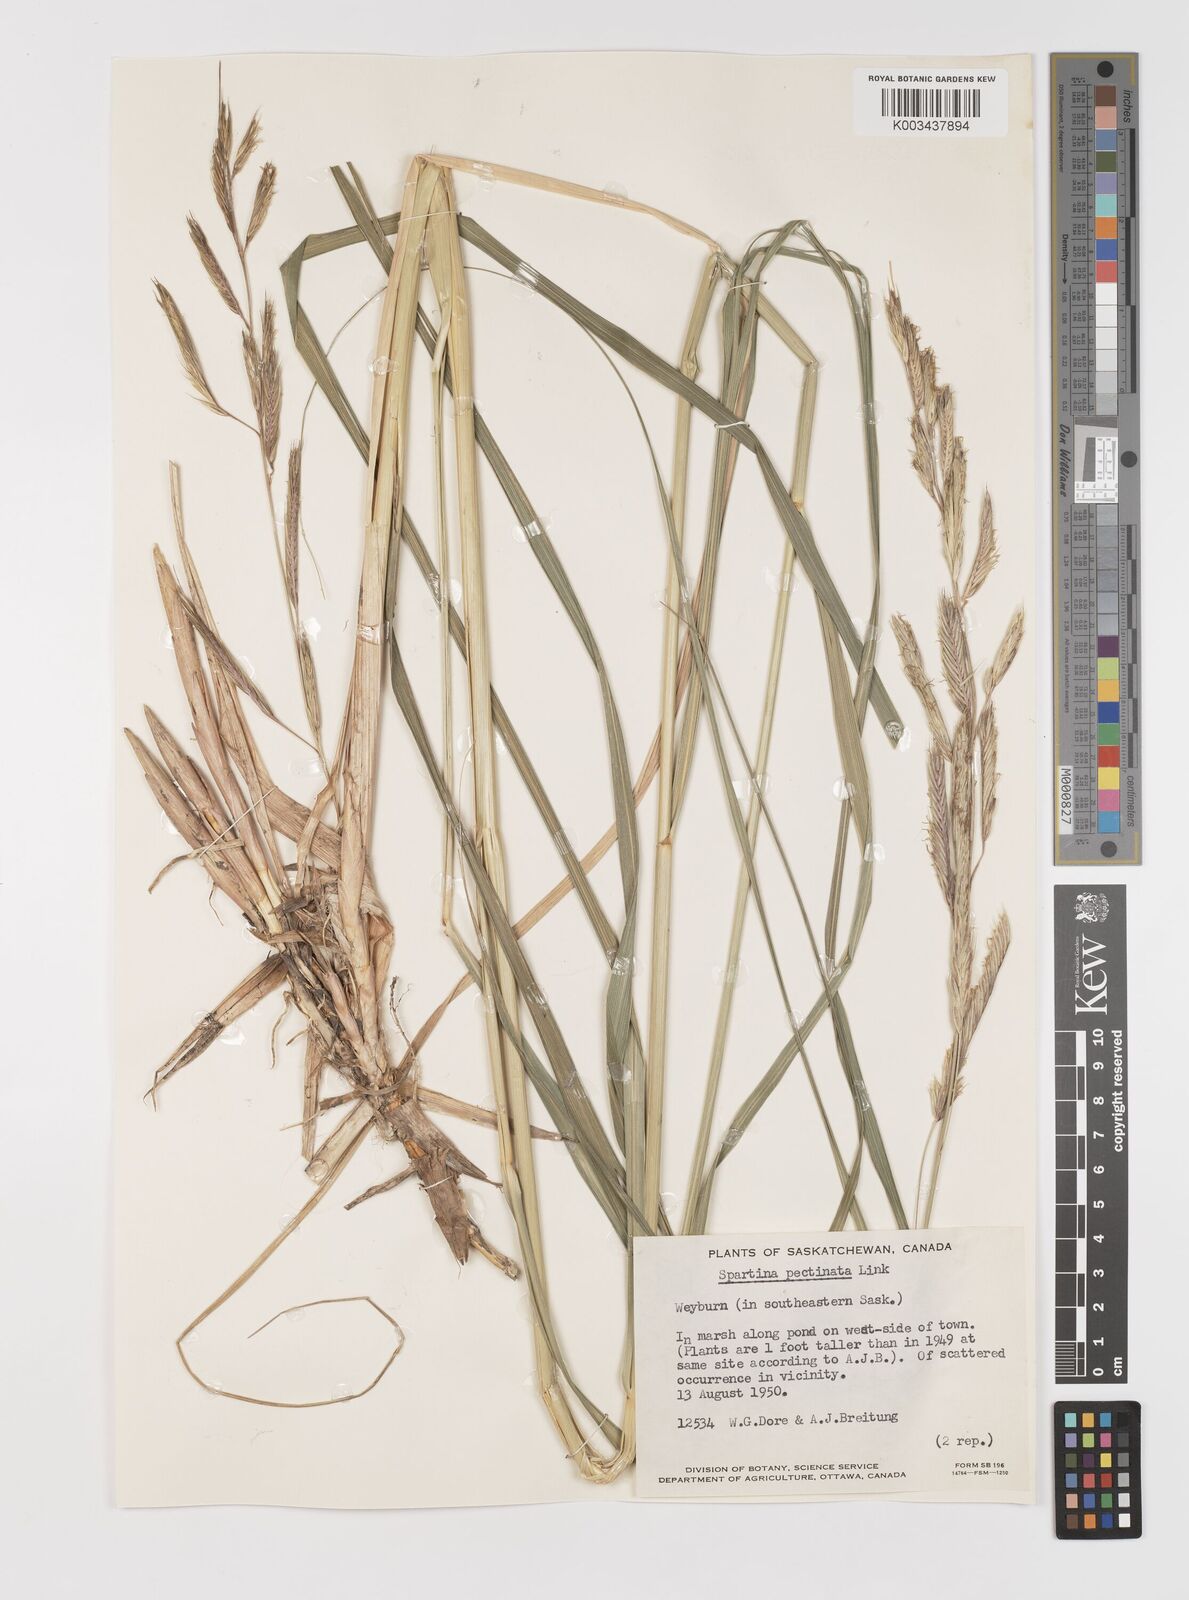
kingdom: Plantae
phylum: Tracheophyta
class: Liliopsida
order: Poales
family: Poaceae
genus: Sporobolus
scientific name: Sporobolus michauxianus
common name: Freshwater cordgrass
